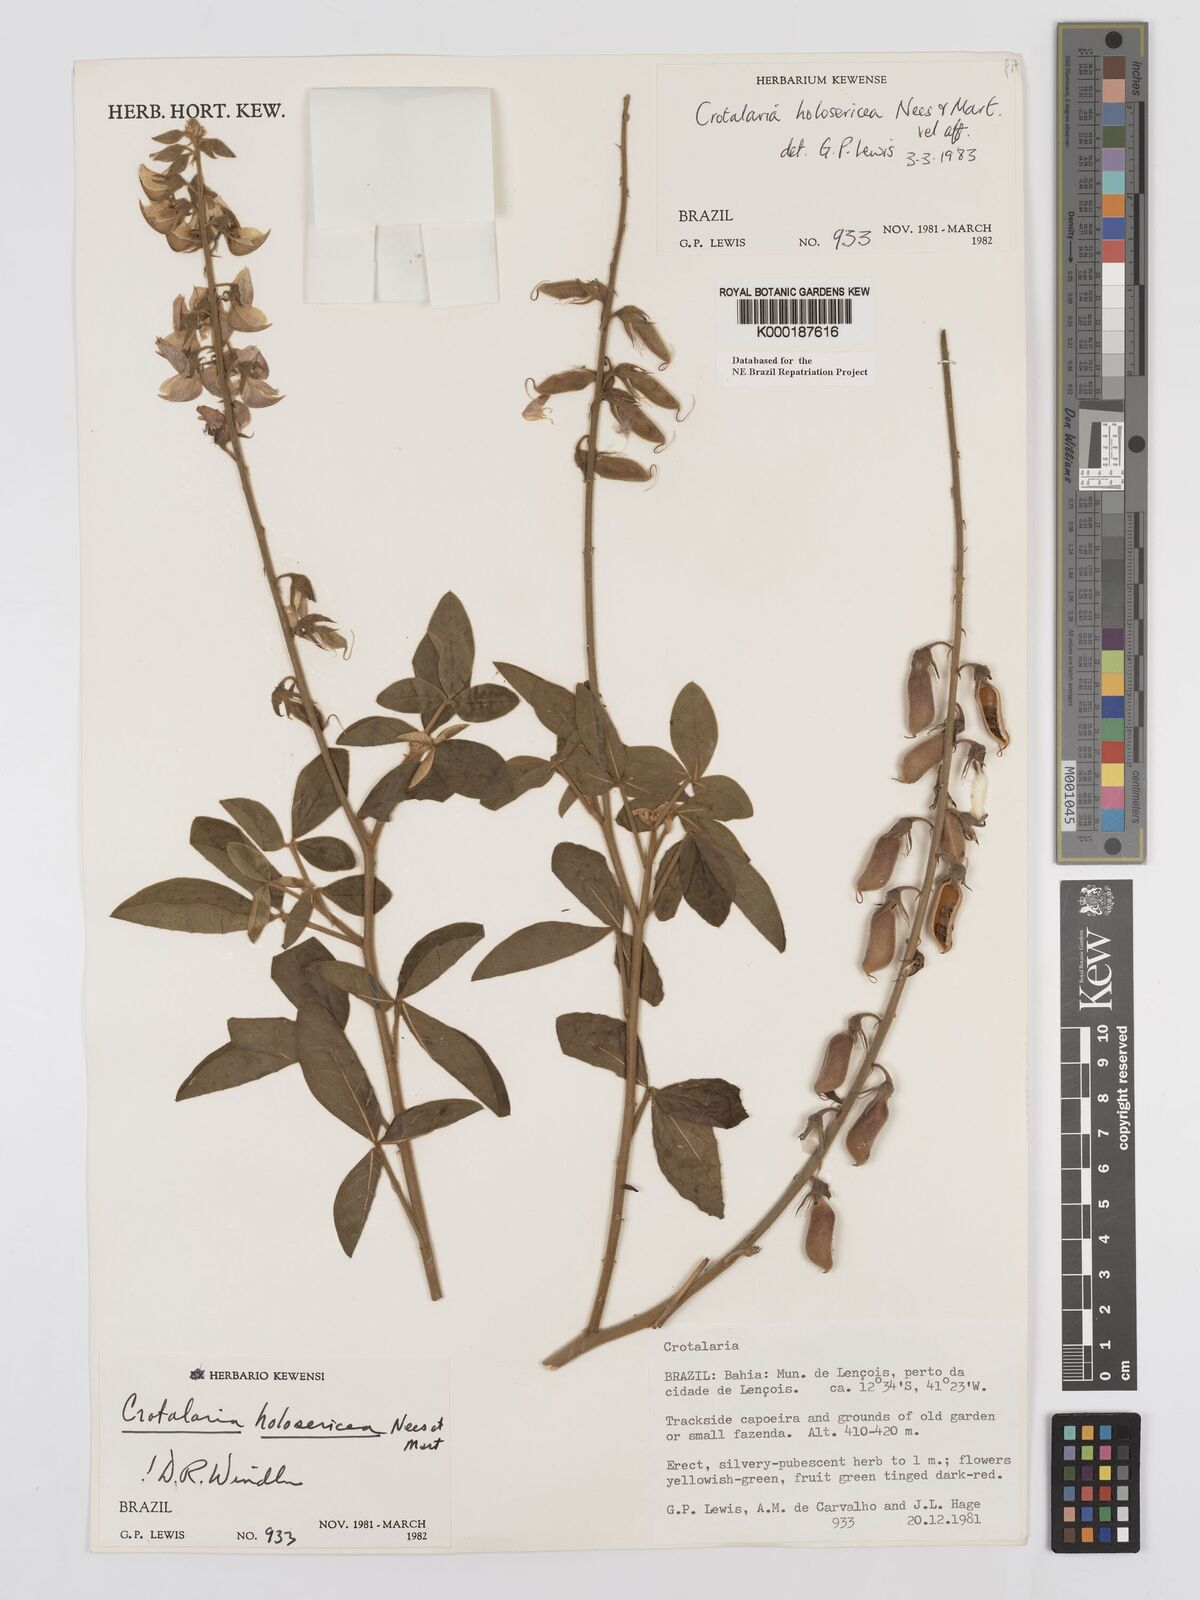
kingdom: Plantae
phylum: Tracheophyta
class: Magnoliopsida
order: Fabales
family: Fabaceae
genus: Crotalaria
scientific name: Crotalaria holosericea
